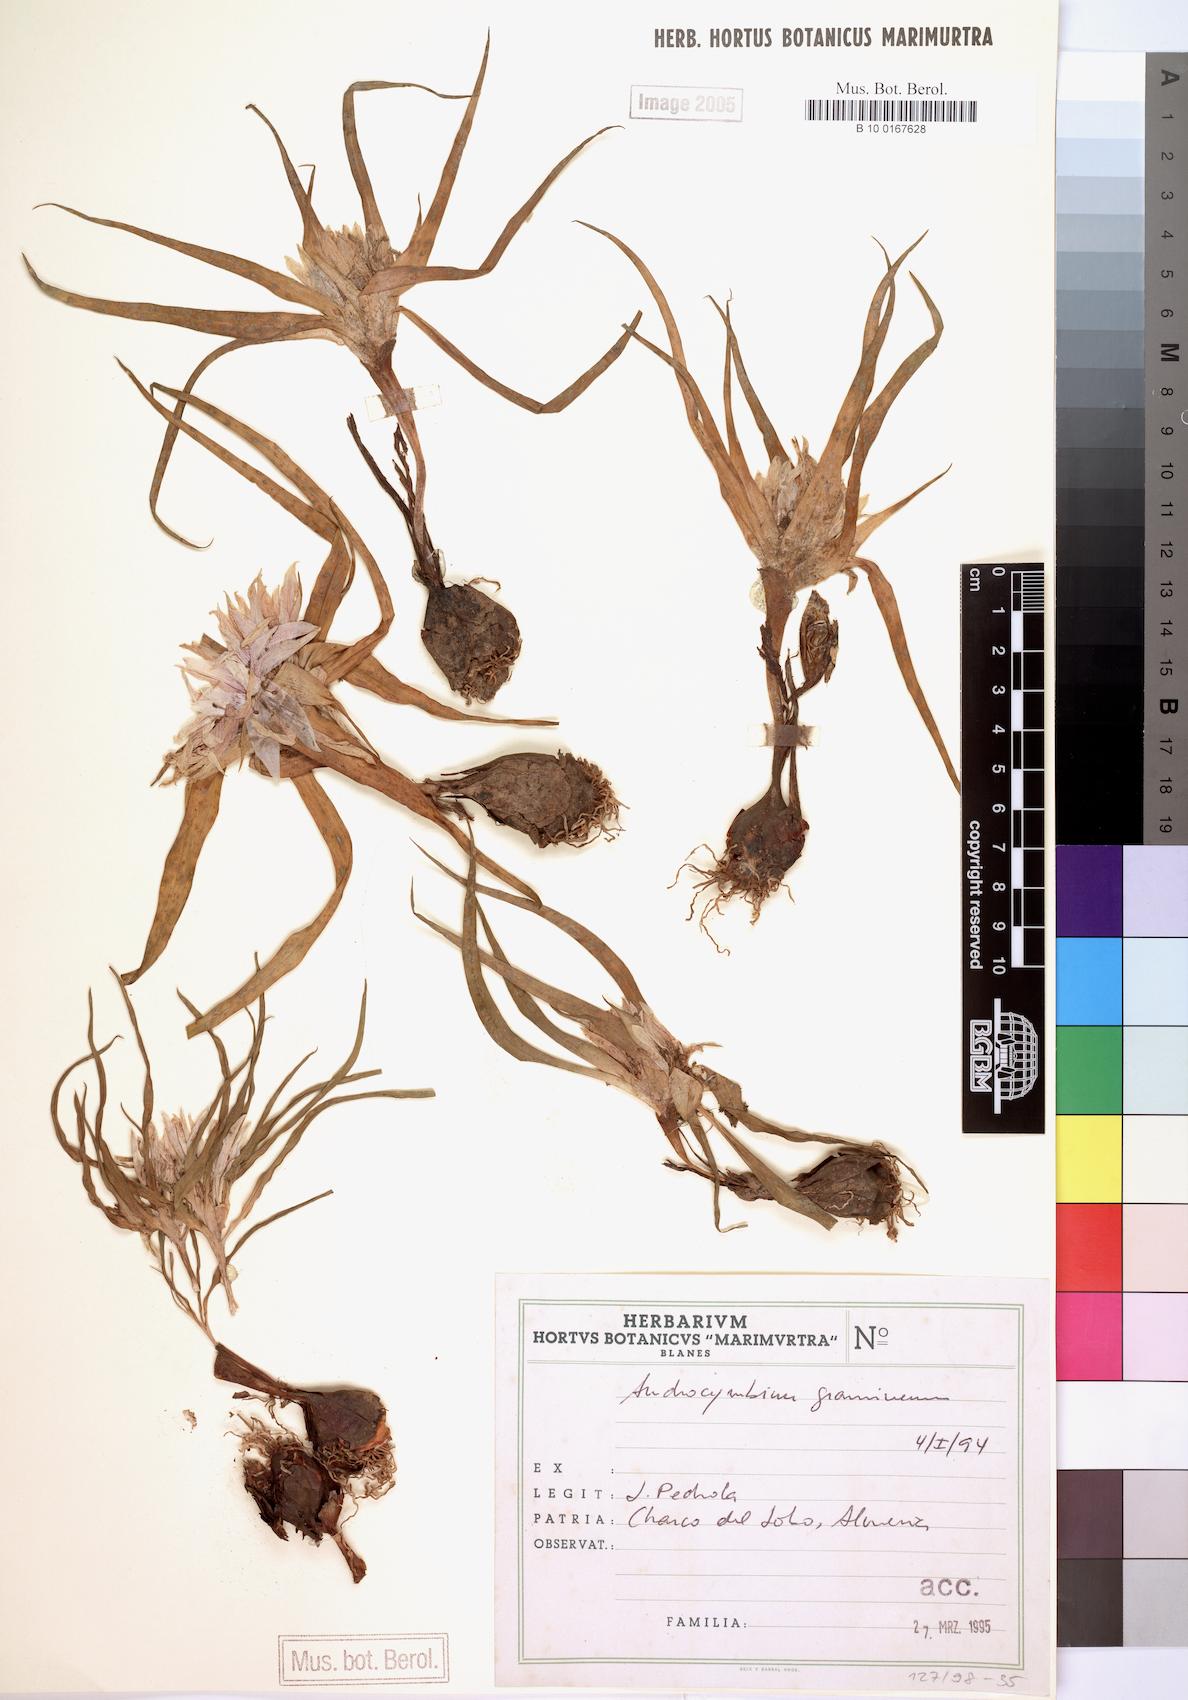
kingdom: Plantae
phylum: Tracheophyta
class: Liliopsida
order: Liliales
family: Colchicaceae
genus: Colchicum
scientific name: Colchicum gramineum
